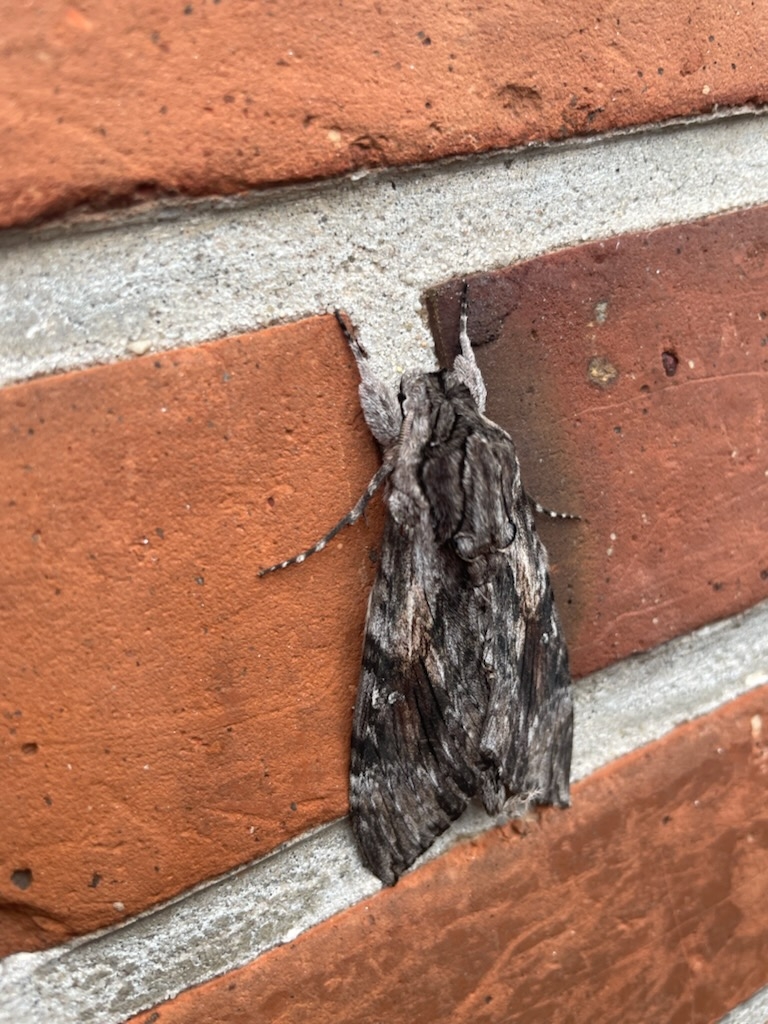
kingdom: Animalia
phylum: Arthropoda
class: Insecta
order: Lepidoptera
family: Sphingidae
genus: Agrius
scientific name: Agrius convolvuli
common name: Snerlesværmer
